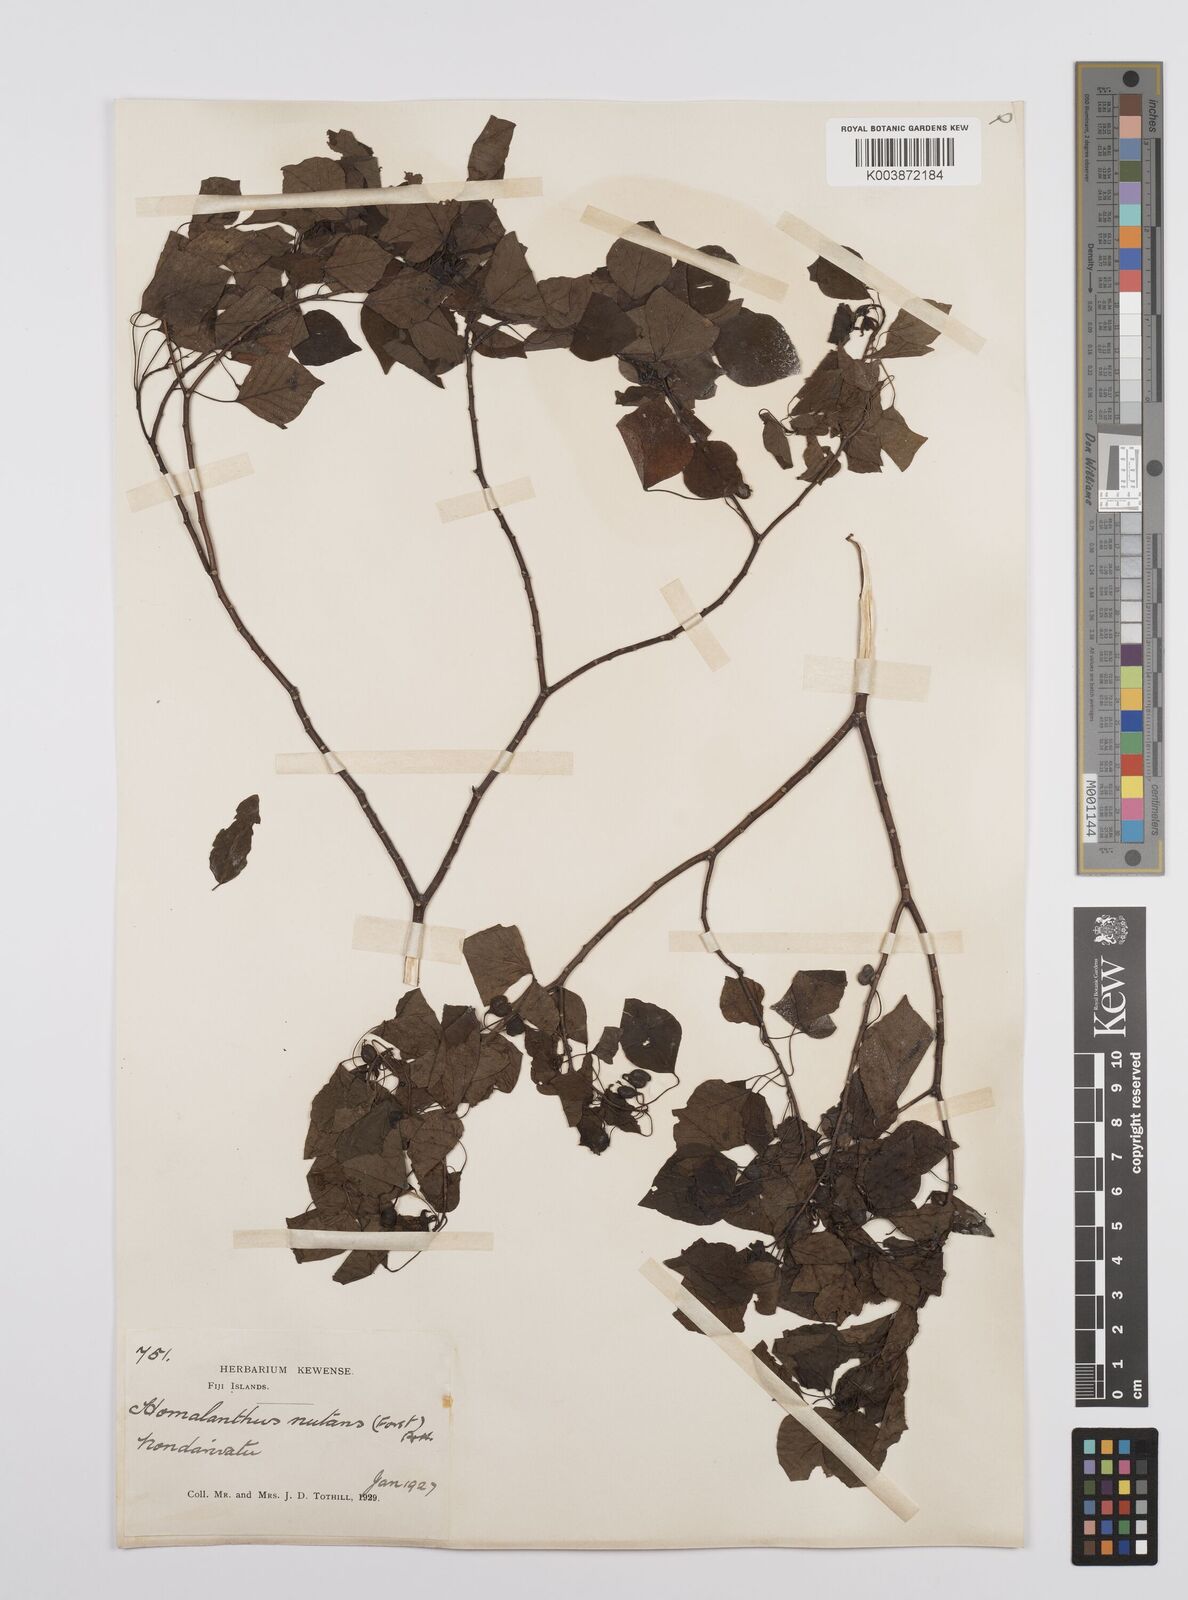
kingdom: Plantae
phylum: Tracheophyta
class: Magnoliopsida
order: Malpighiales
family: Euphorbiaceae
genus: Homalanthus
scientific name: Homalanthus nutans
